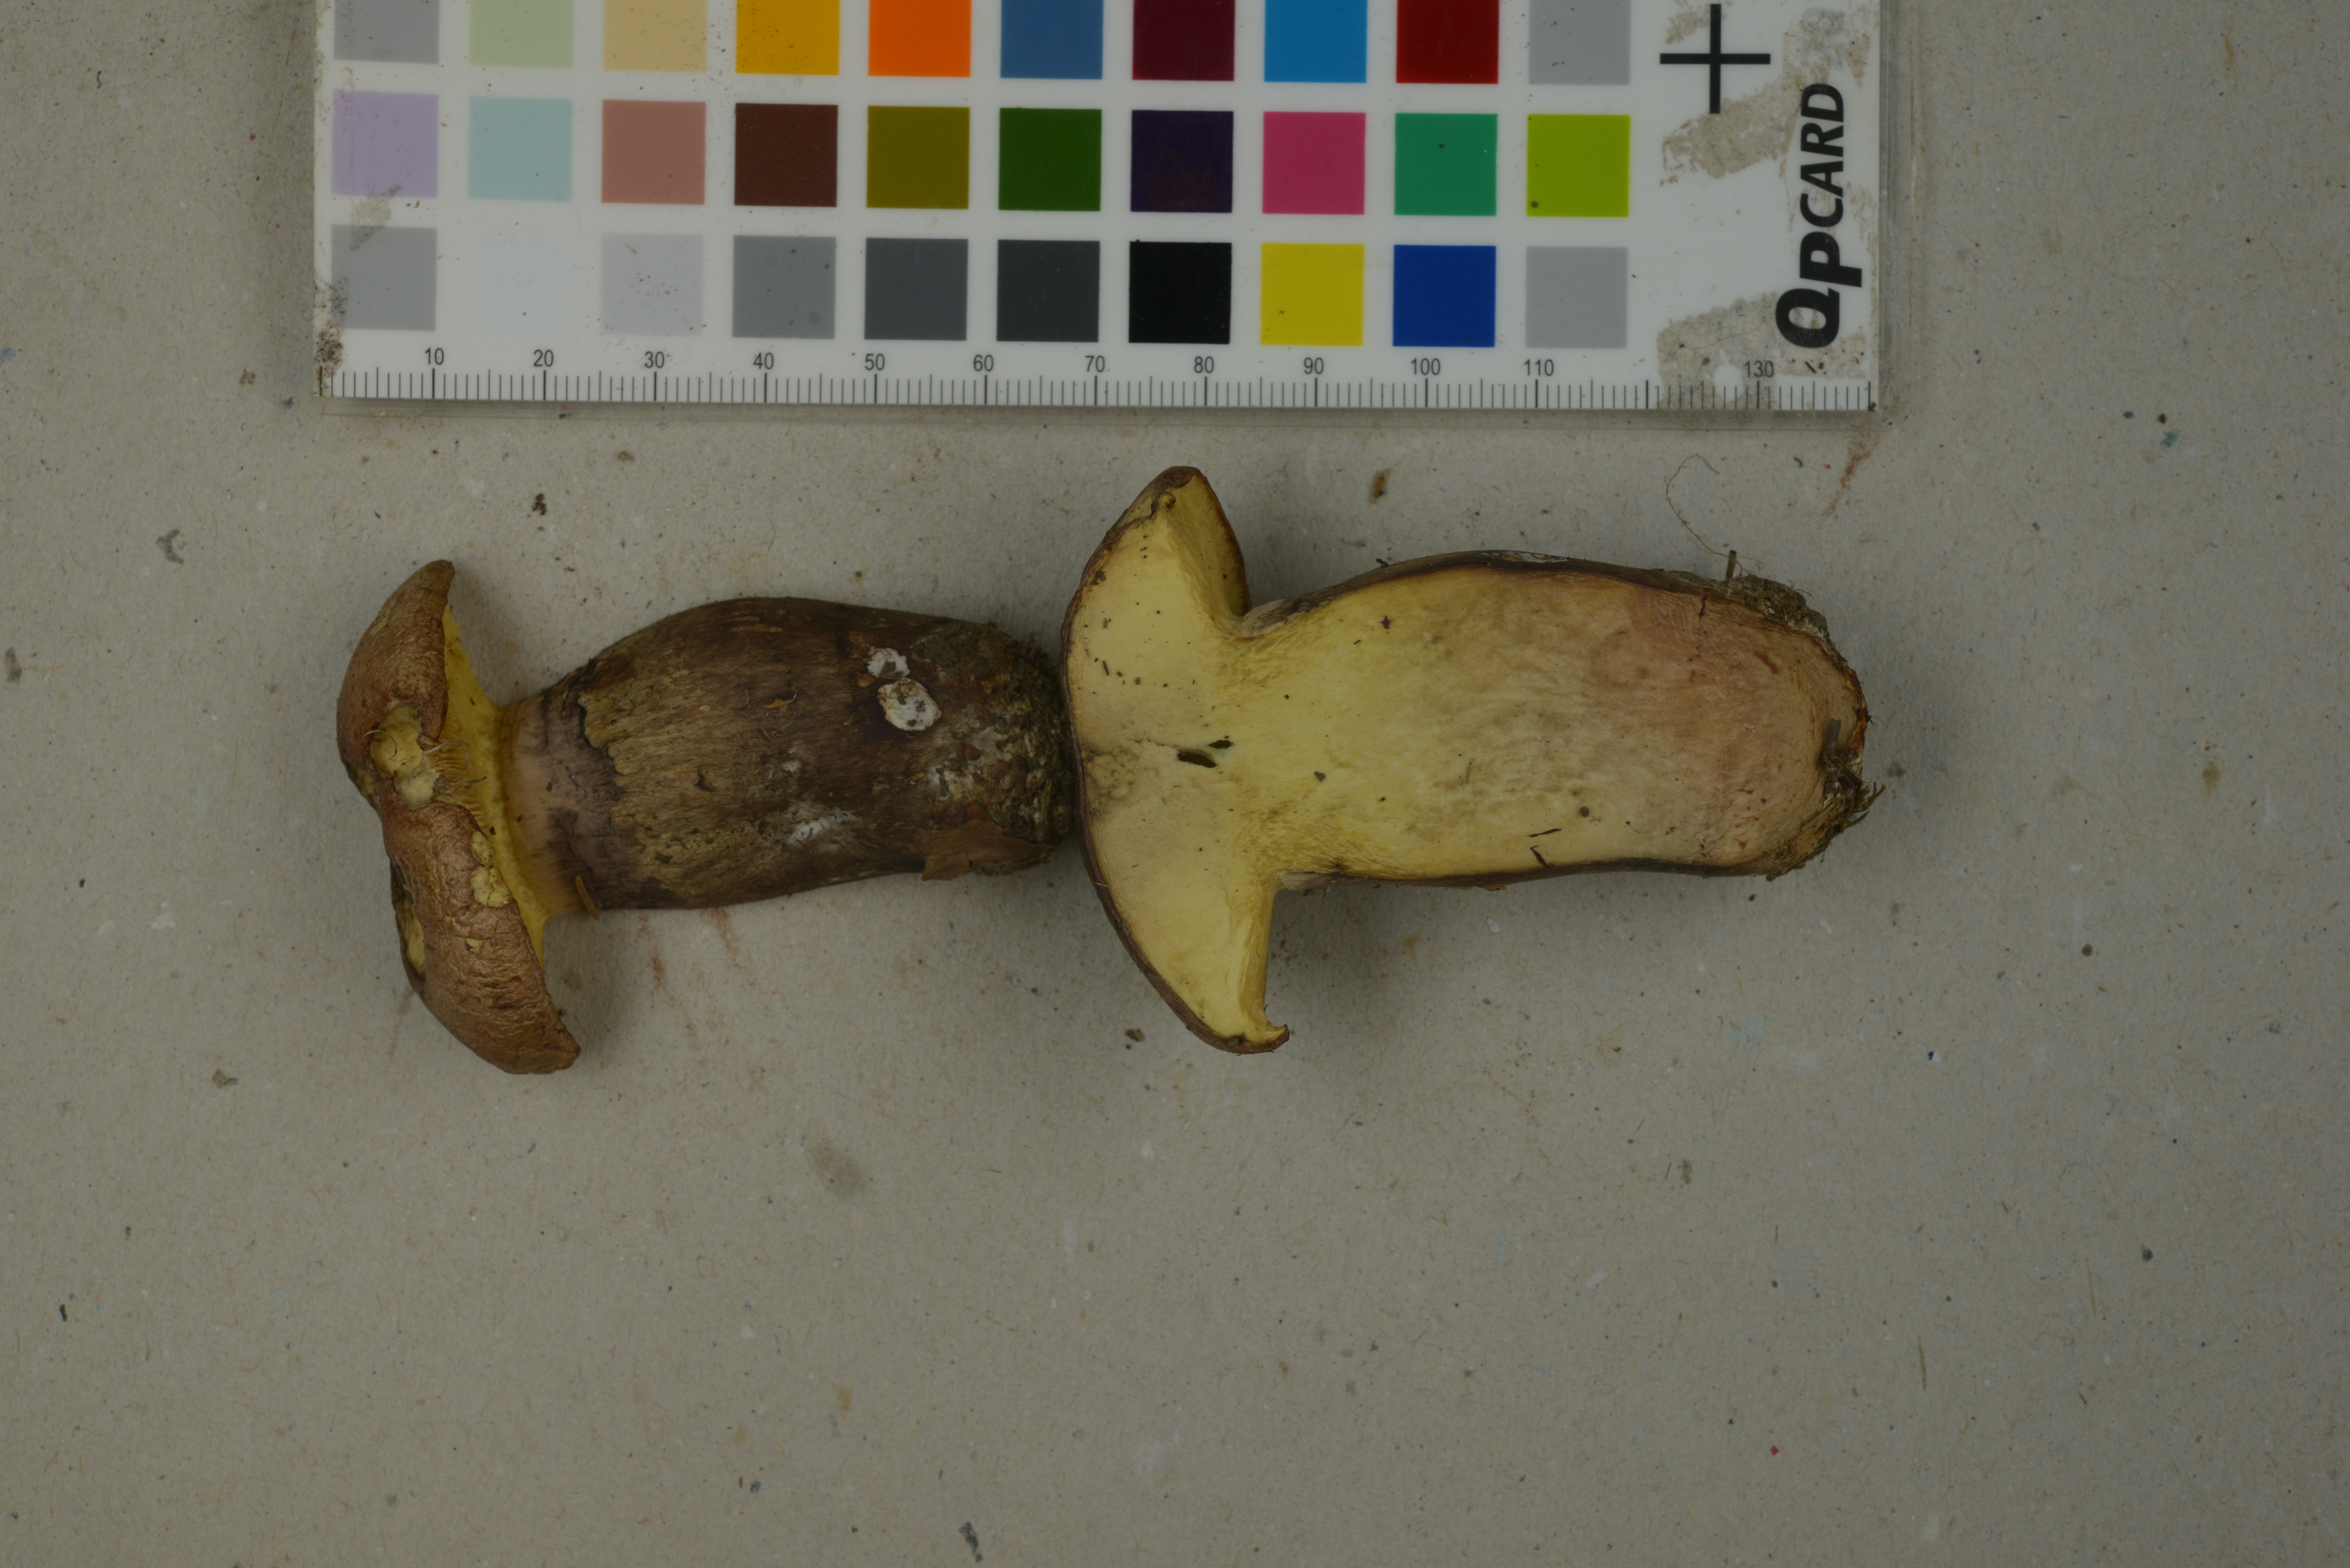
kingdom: Fungi
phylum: Basidiomycota
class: Agaricomycetes
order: Agaricales
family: Cortinariaceae
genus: Phlegmacium
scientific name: Phlegmacium mussivum
